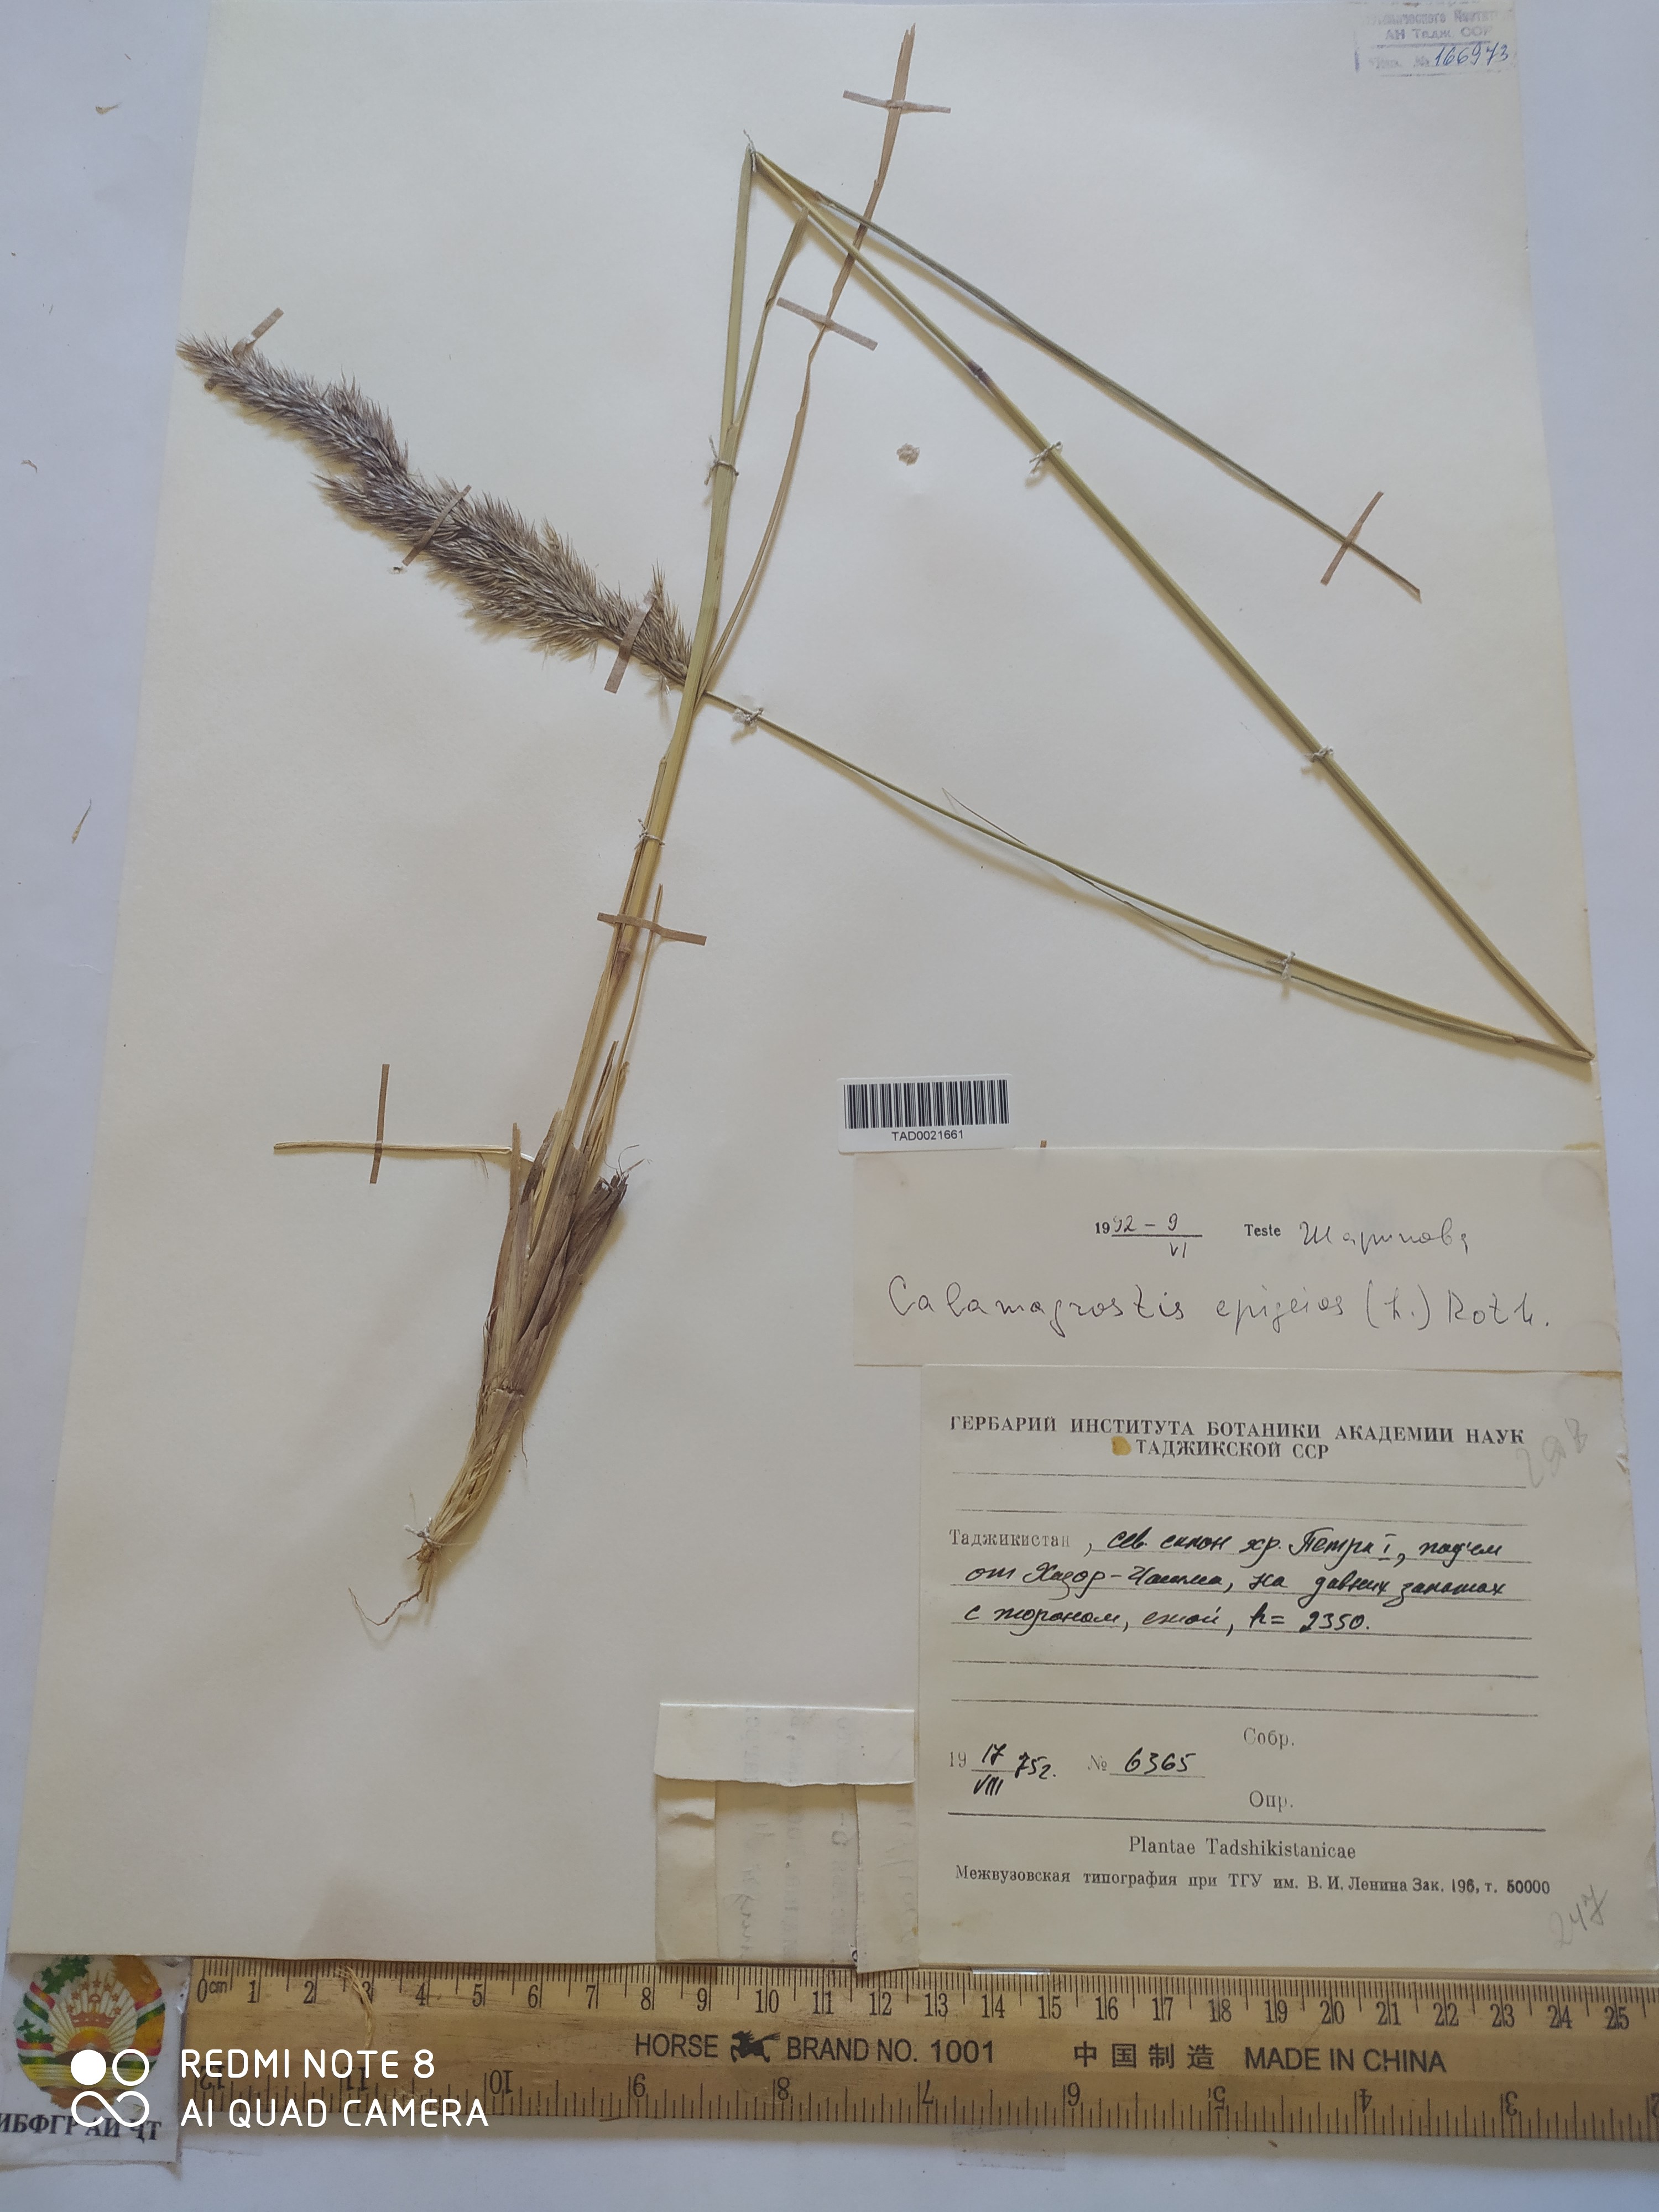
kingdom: Plantae
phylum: Tracheophyta
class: Liliopsida
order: Poales
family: Poaceae
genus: Calamagrostis
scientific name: Calamagrostis epigejos
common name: Wood small-reed
